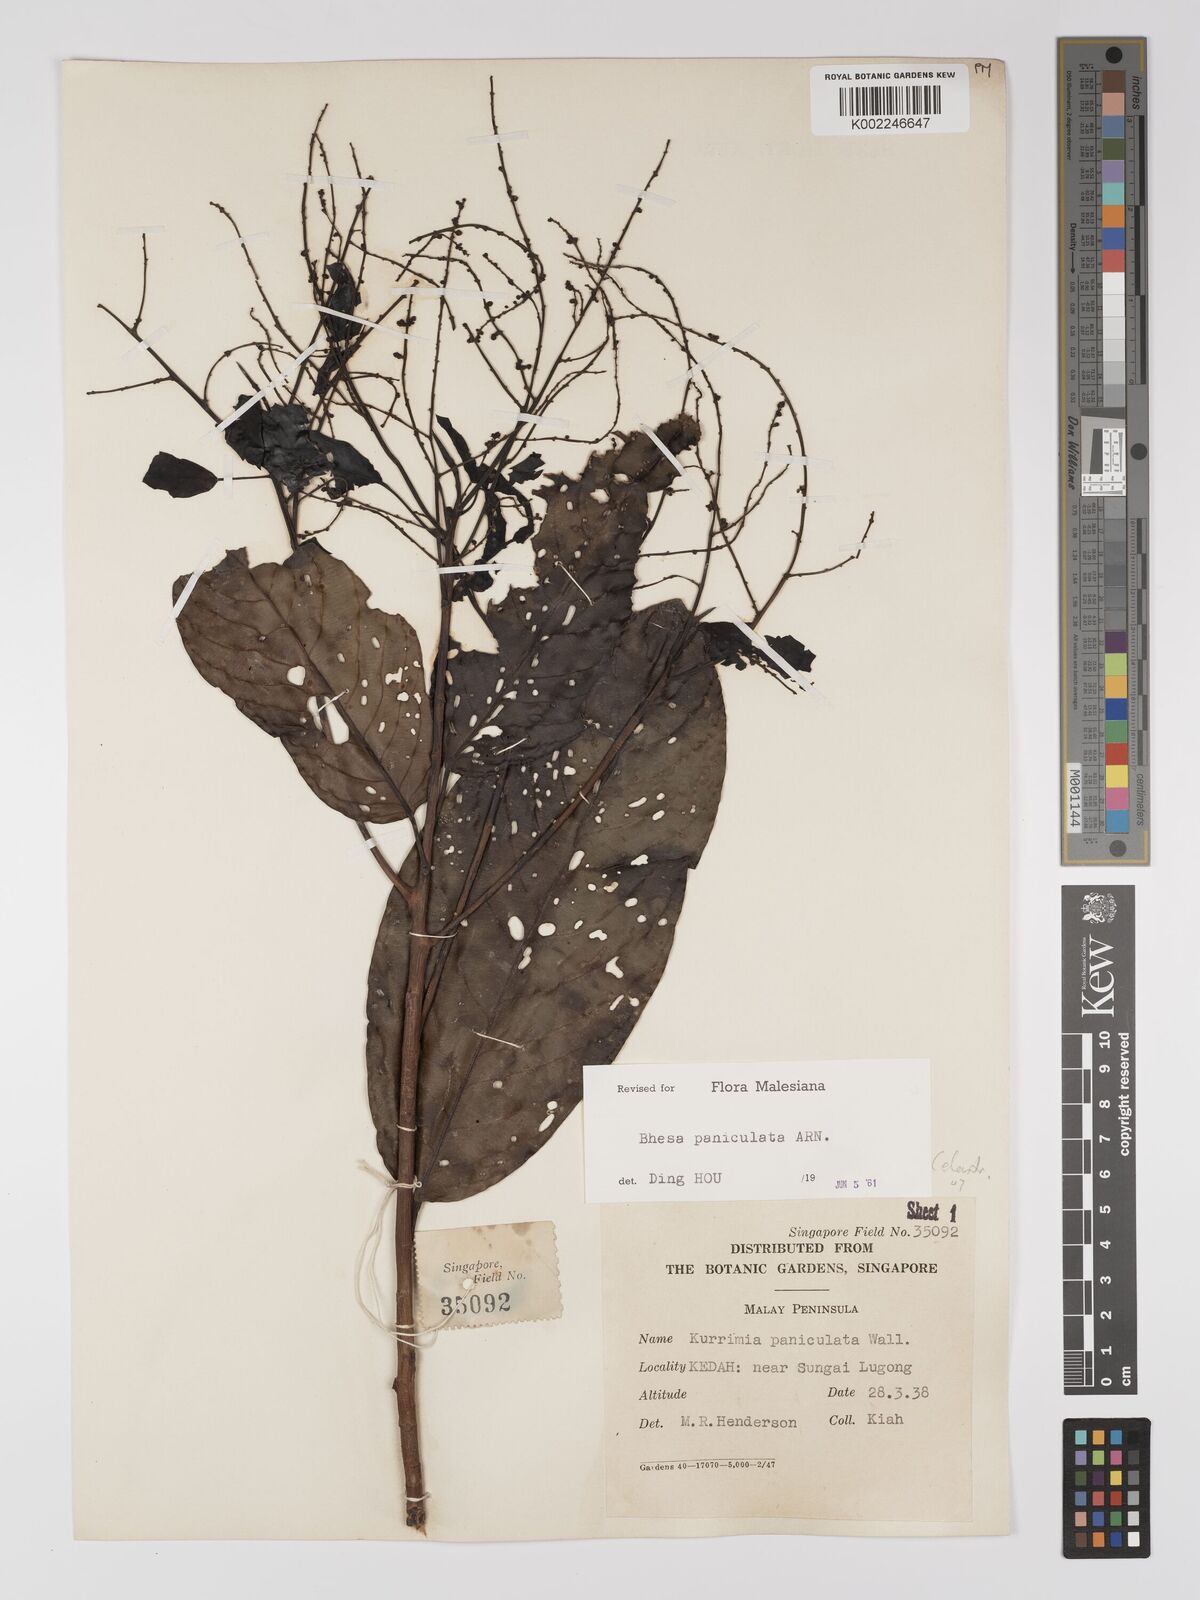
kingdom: Plantae
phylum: Tracheophyta
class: Magnoliopsida
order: Malpighiales
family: Centroplacaceae
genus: Bhesa
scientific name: Bhesa paniculata
